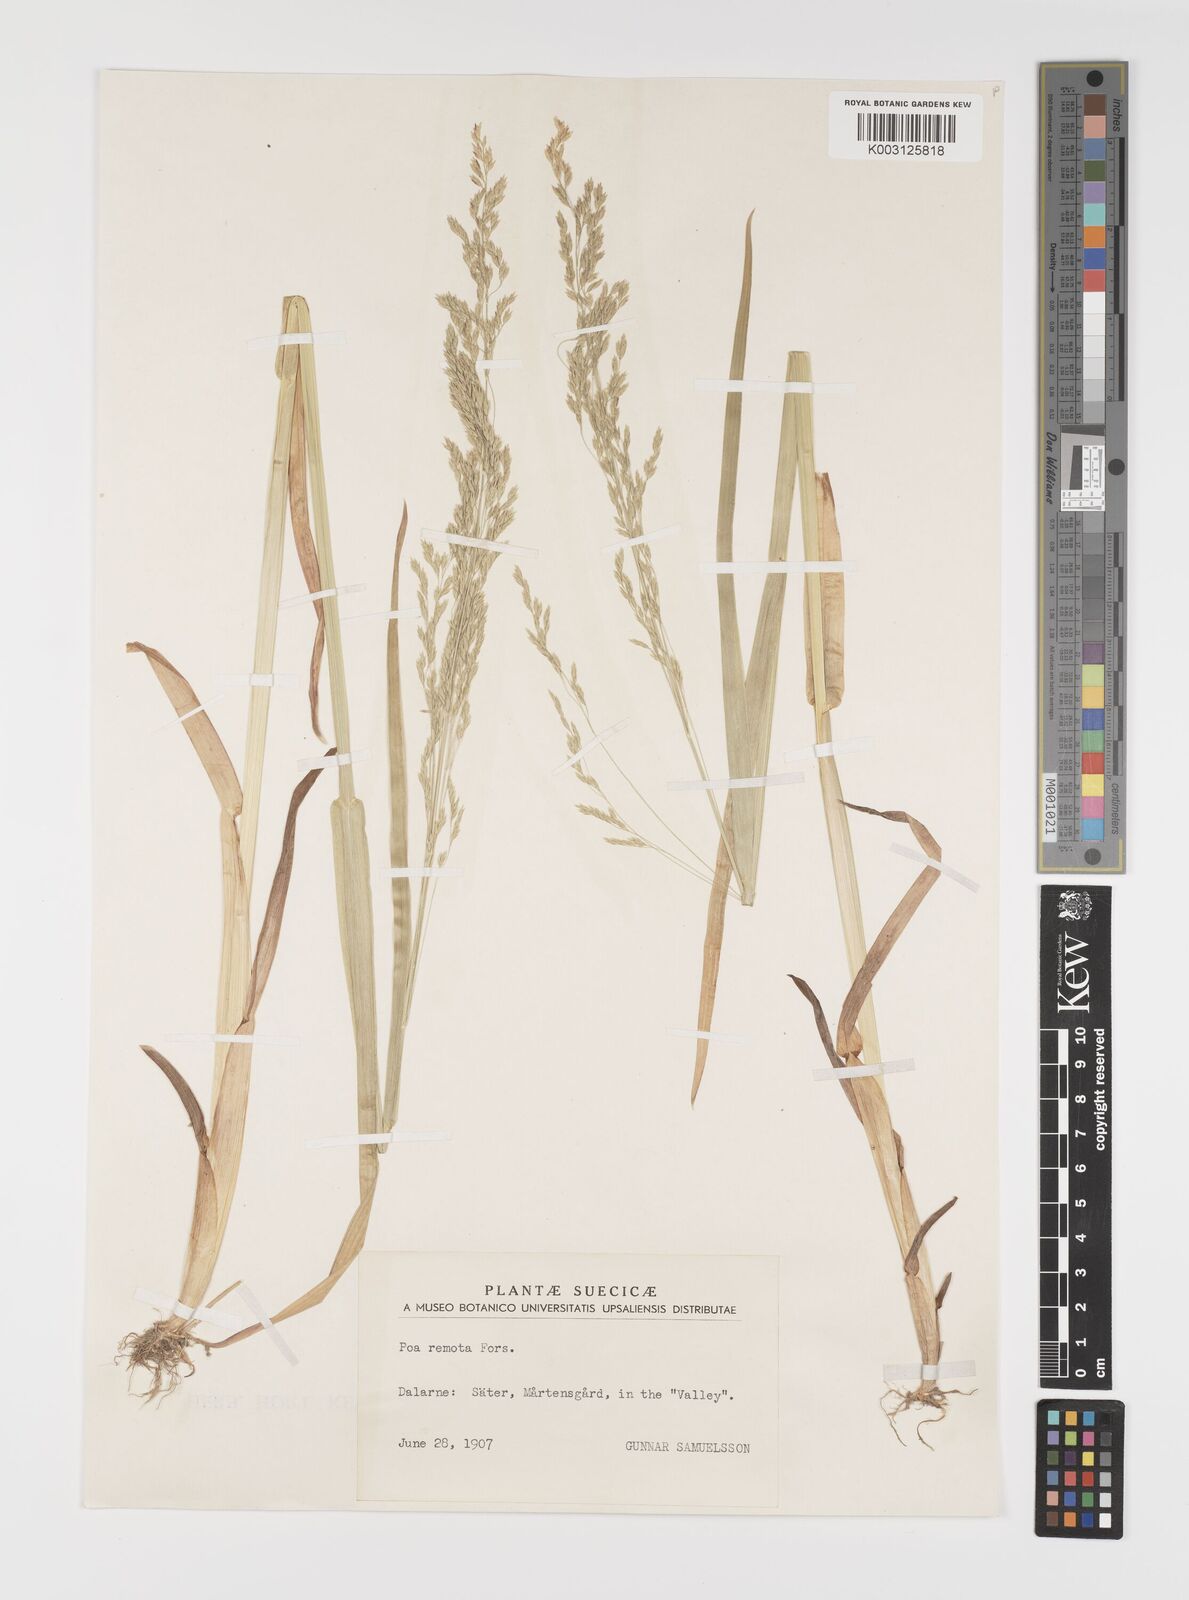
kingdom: Plantae
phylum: Tracheophyta
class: Liliopsida
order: Poales
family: Poaceae
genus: Poa
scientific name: Poa remota
